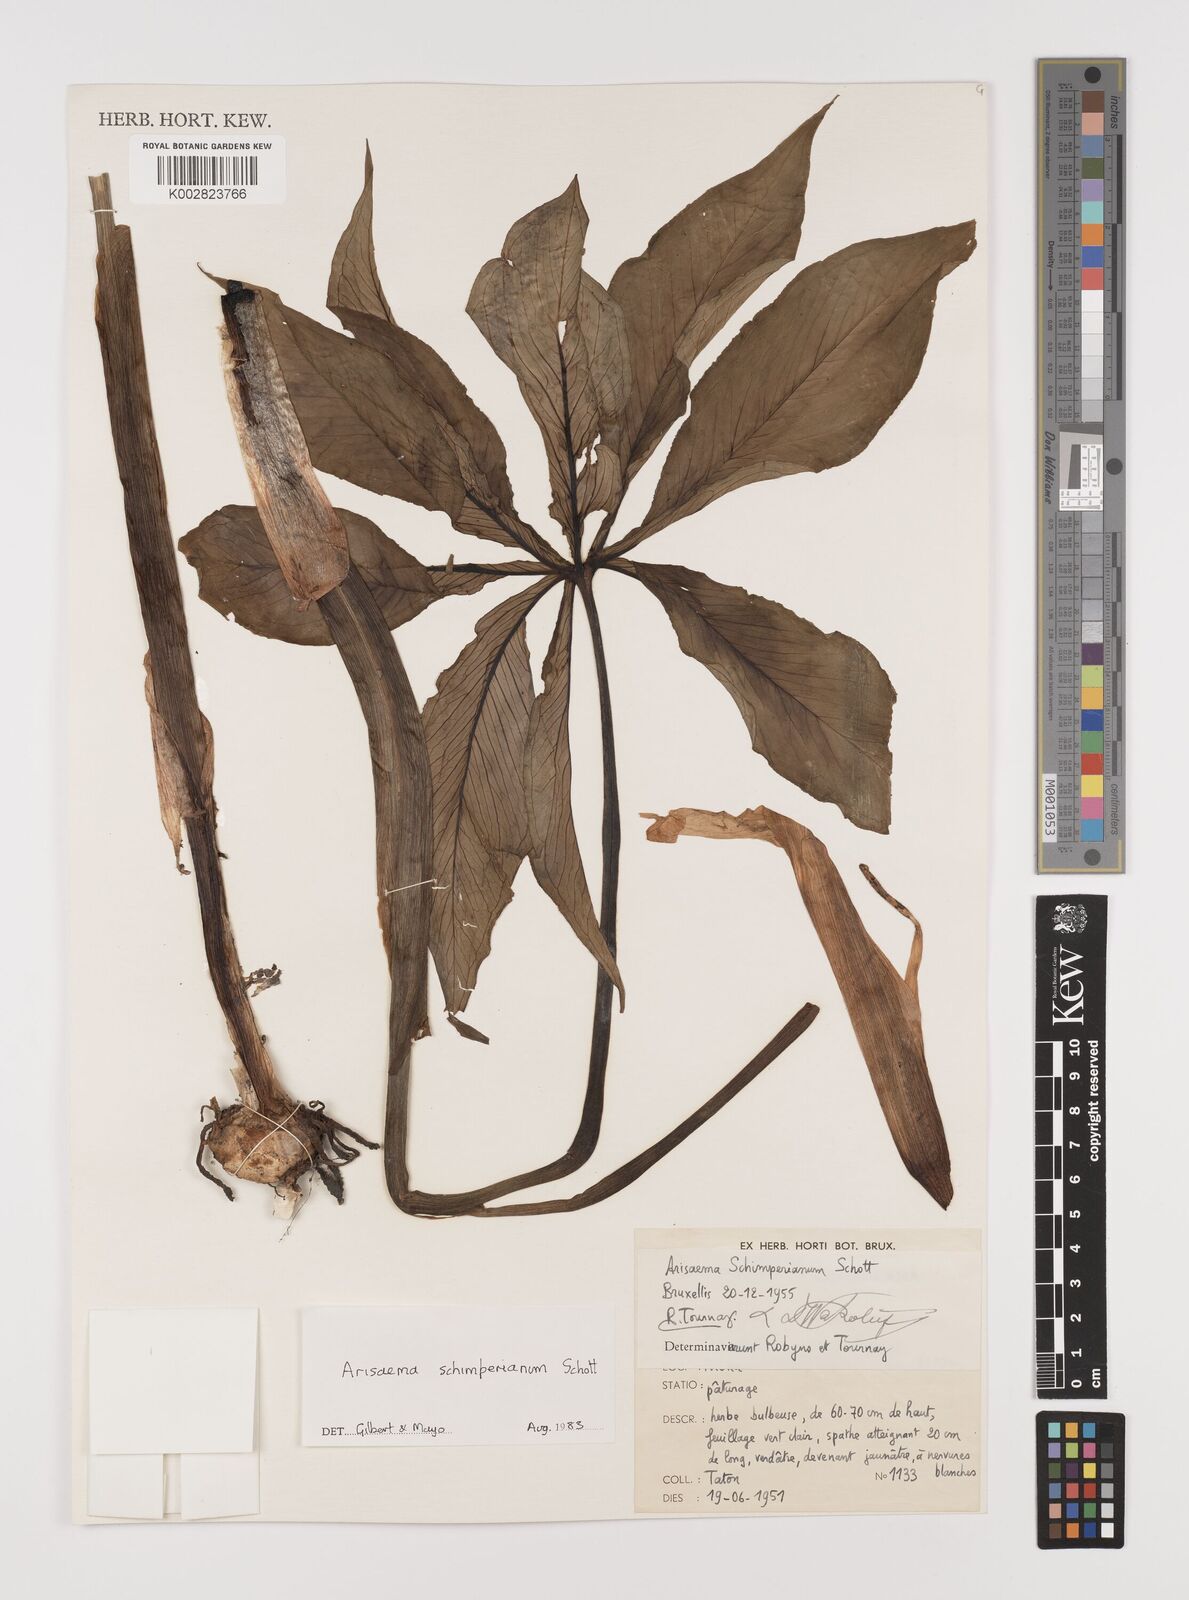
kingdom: Plantae
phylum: Tracheophyta
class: Liliopsida
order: Alismatales
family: Araceae
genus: Arisaema
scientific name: Arisaema schimperianum
